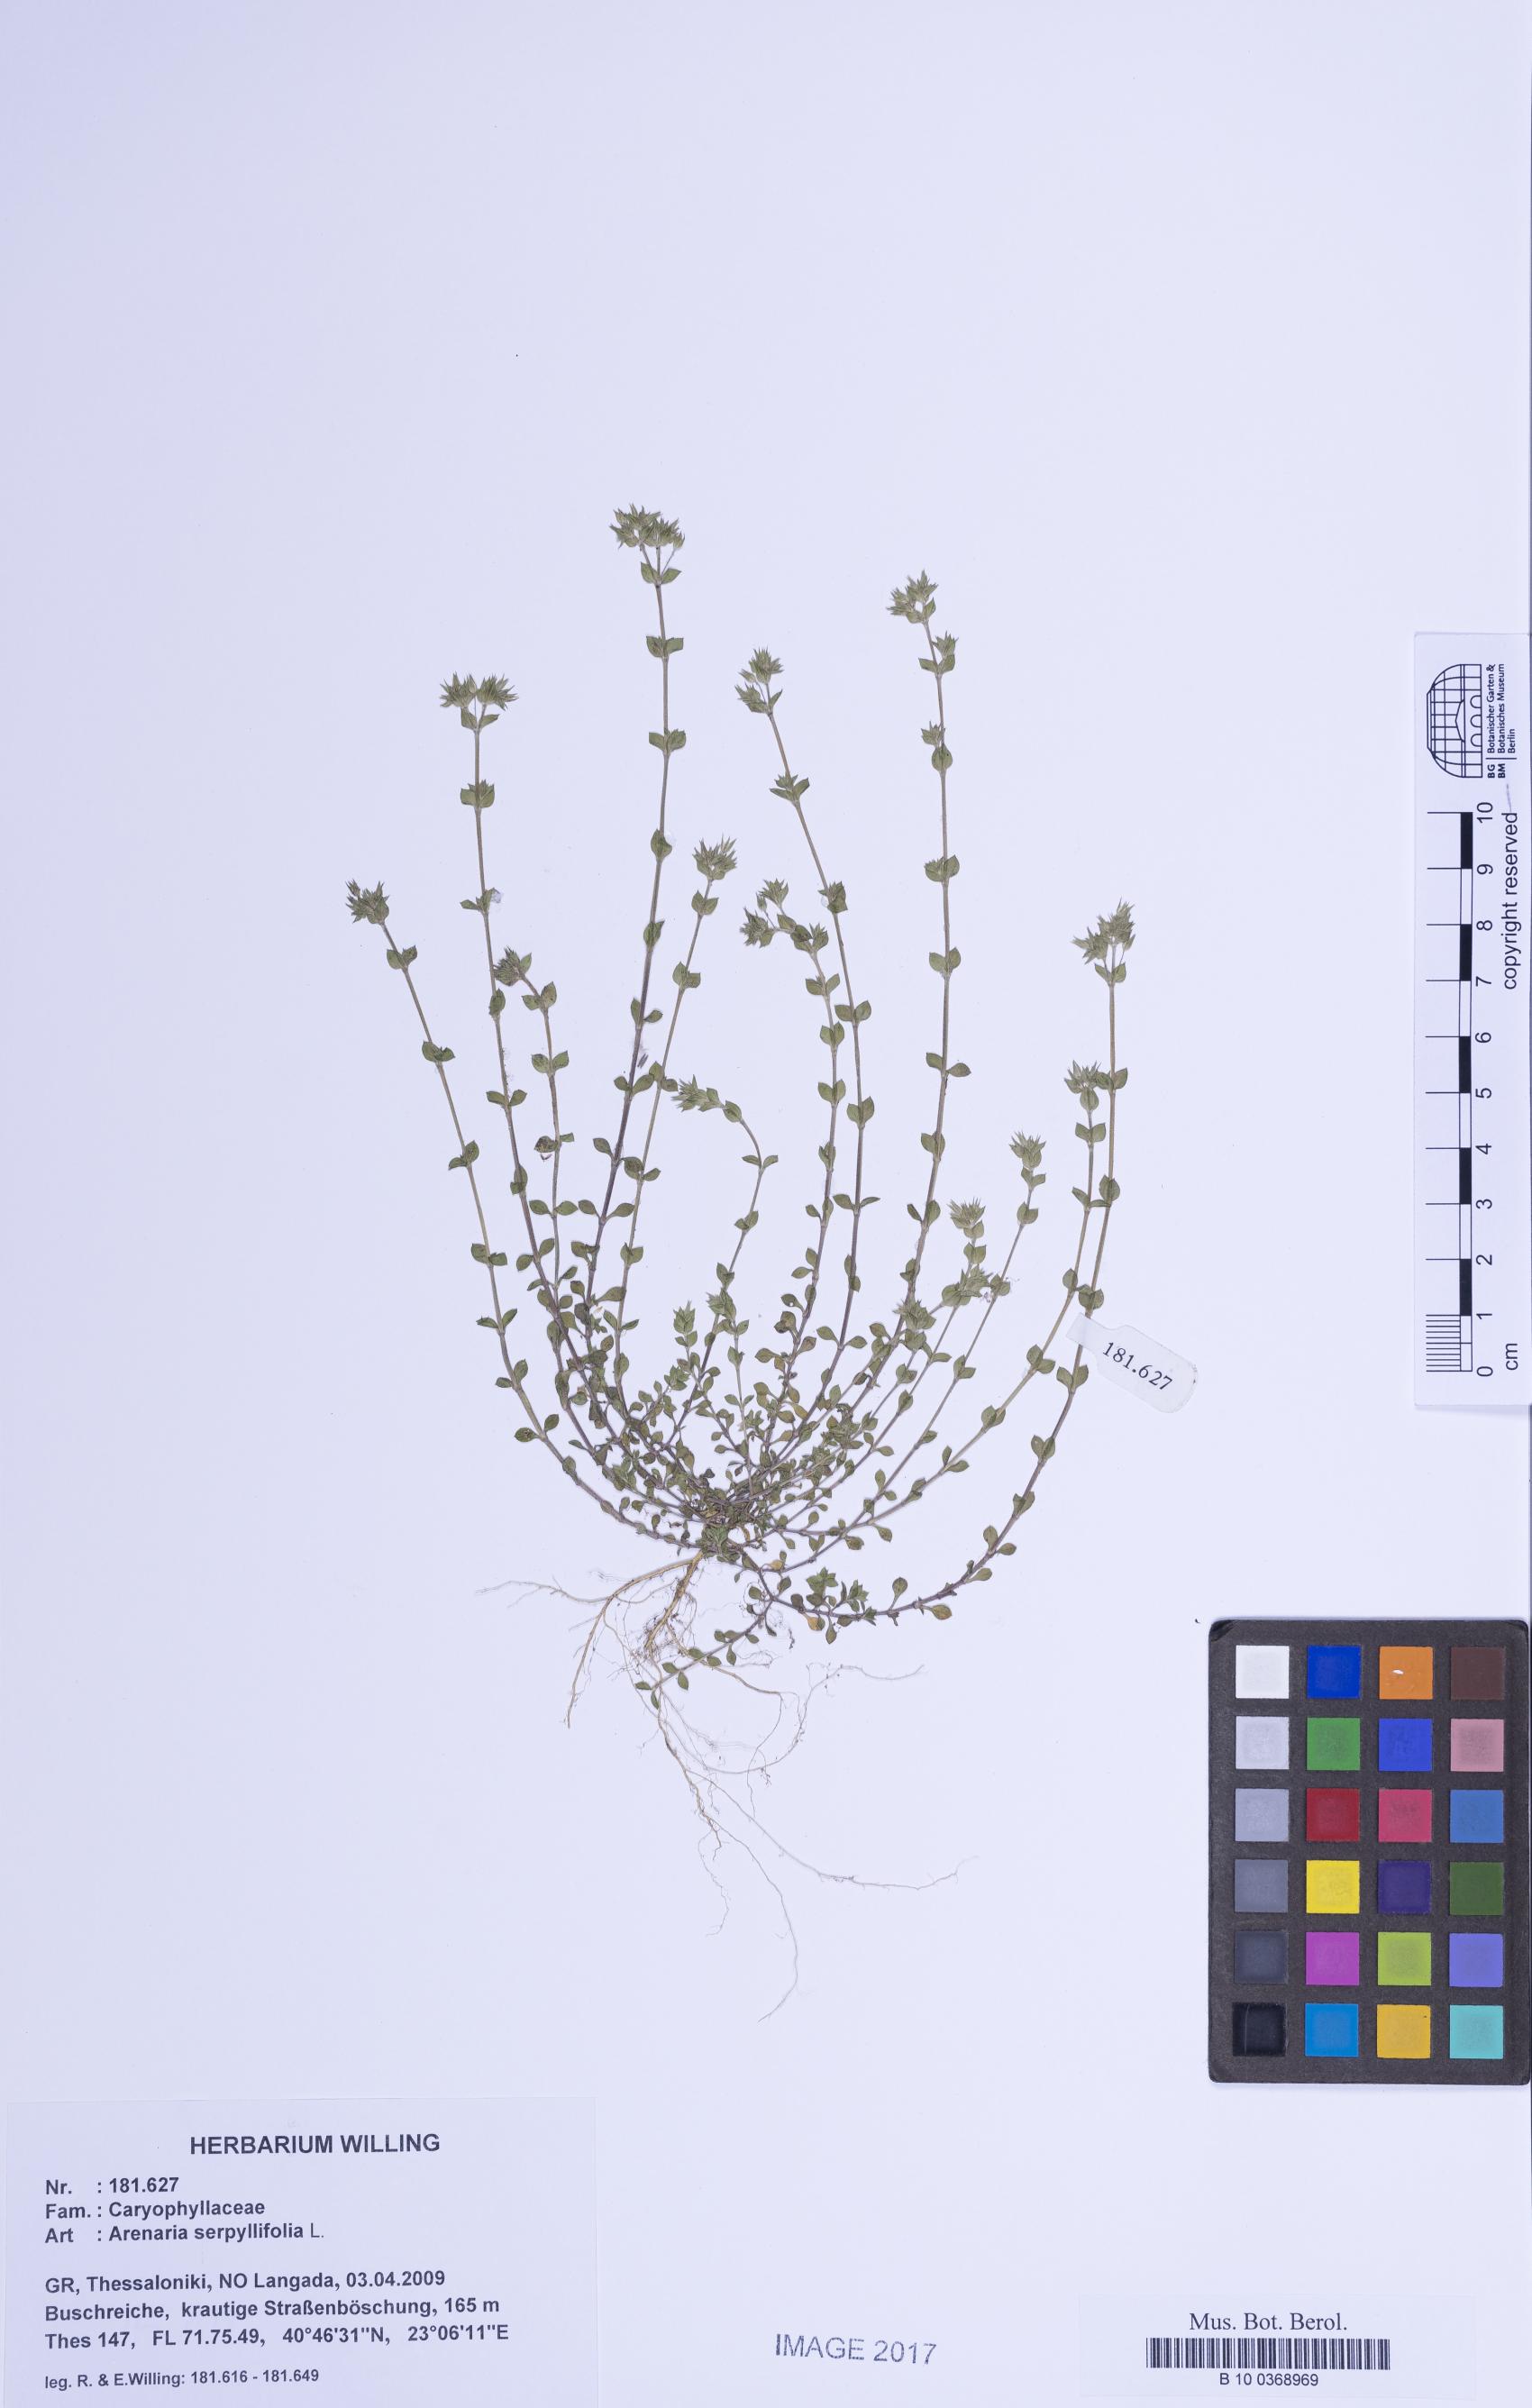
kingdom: Plantae
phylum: Tracheophyta
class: Magnoliopsida
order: Caryophyllales
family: Caryophyllaceae
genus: Arenaria
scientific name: Arenaria serpyllifolia
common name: Thyme-leaved sandwort
